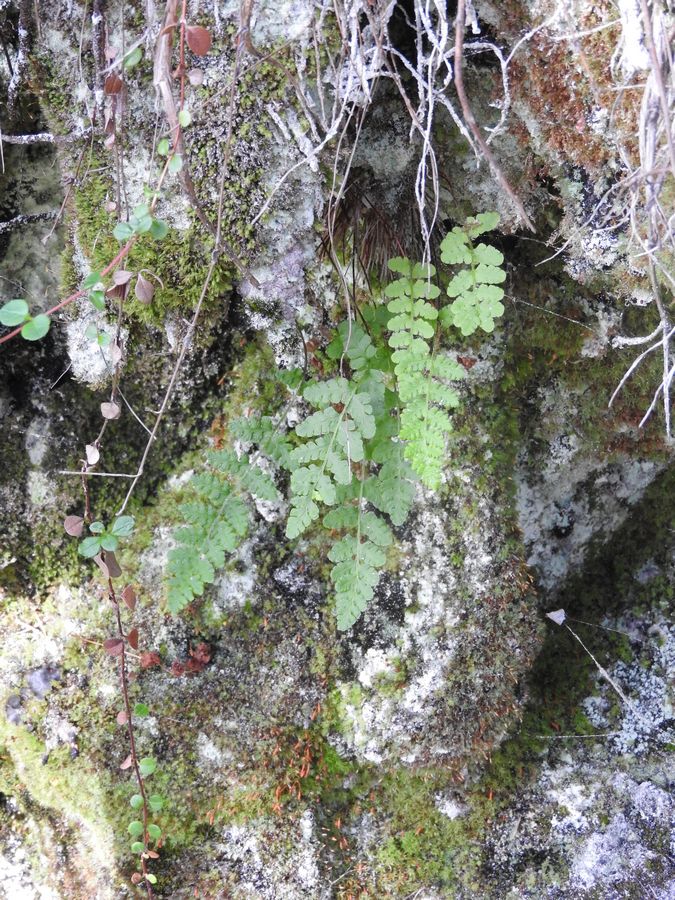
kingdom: Plantae
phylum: Tracheophyta
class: Polypodiopsida
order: Polypodiales
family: Woodsiaceae
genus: Woodsia
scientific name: Woodsia ilvensis
